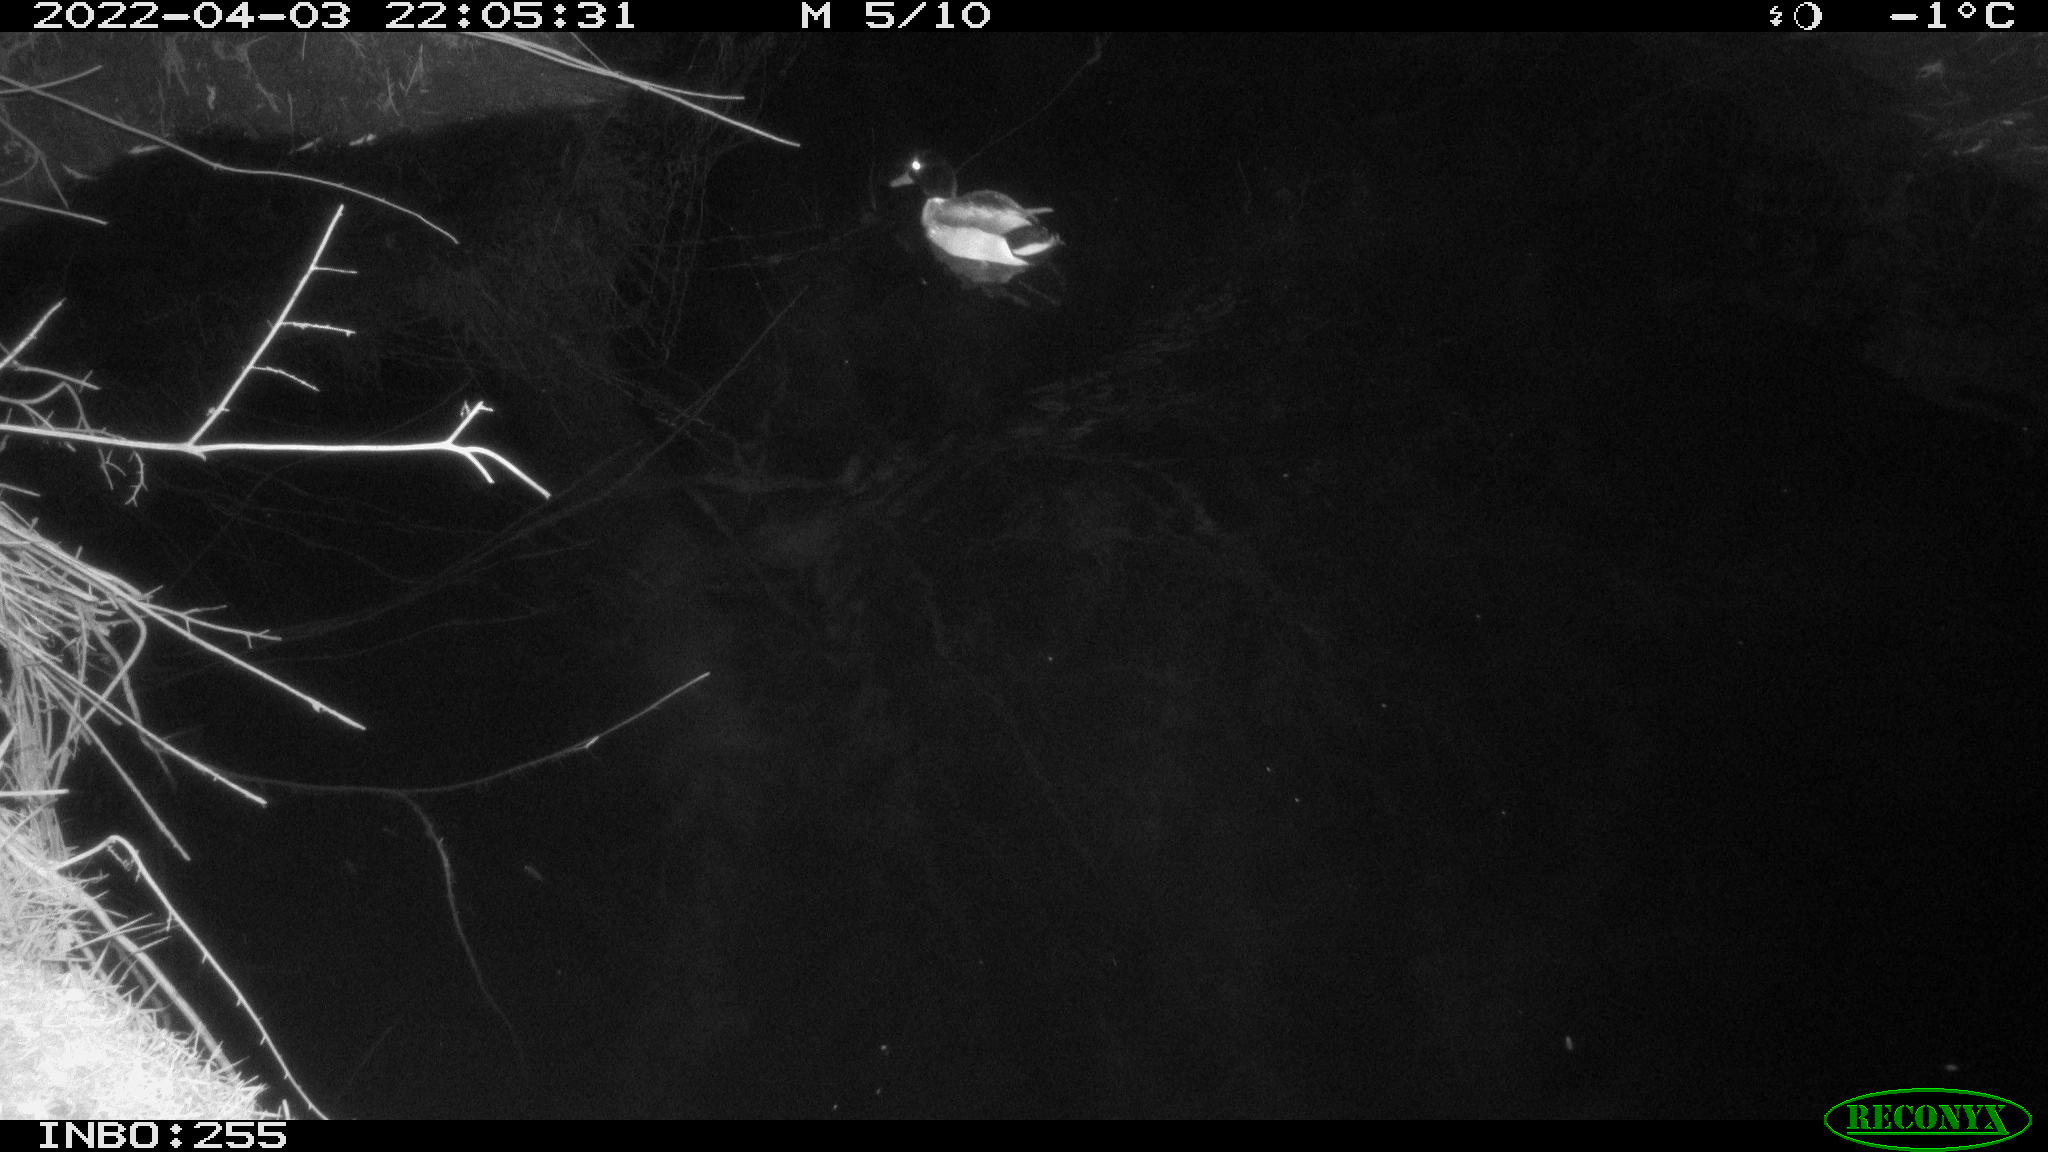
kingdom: Animalia
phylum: Chordata
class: Aves
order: Anseriformes
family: Anatidae
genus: Anas
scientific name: Anas platyrhynchos
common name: Mallard
